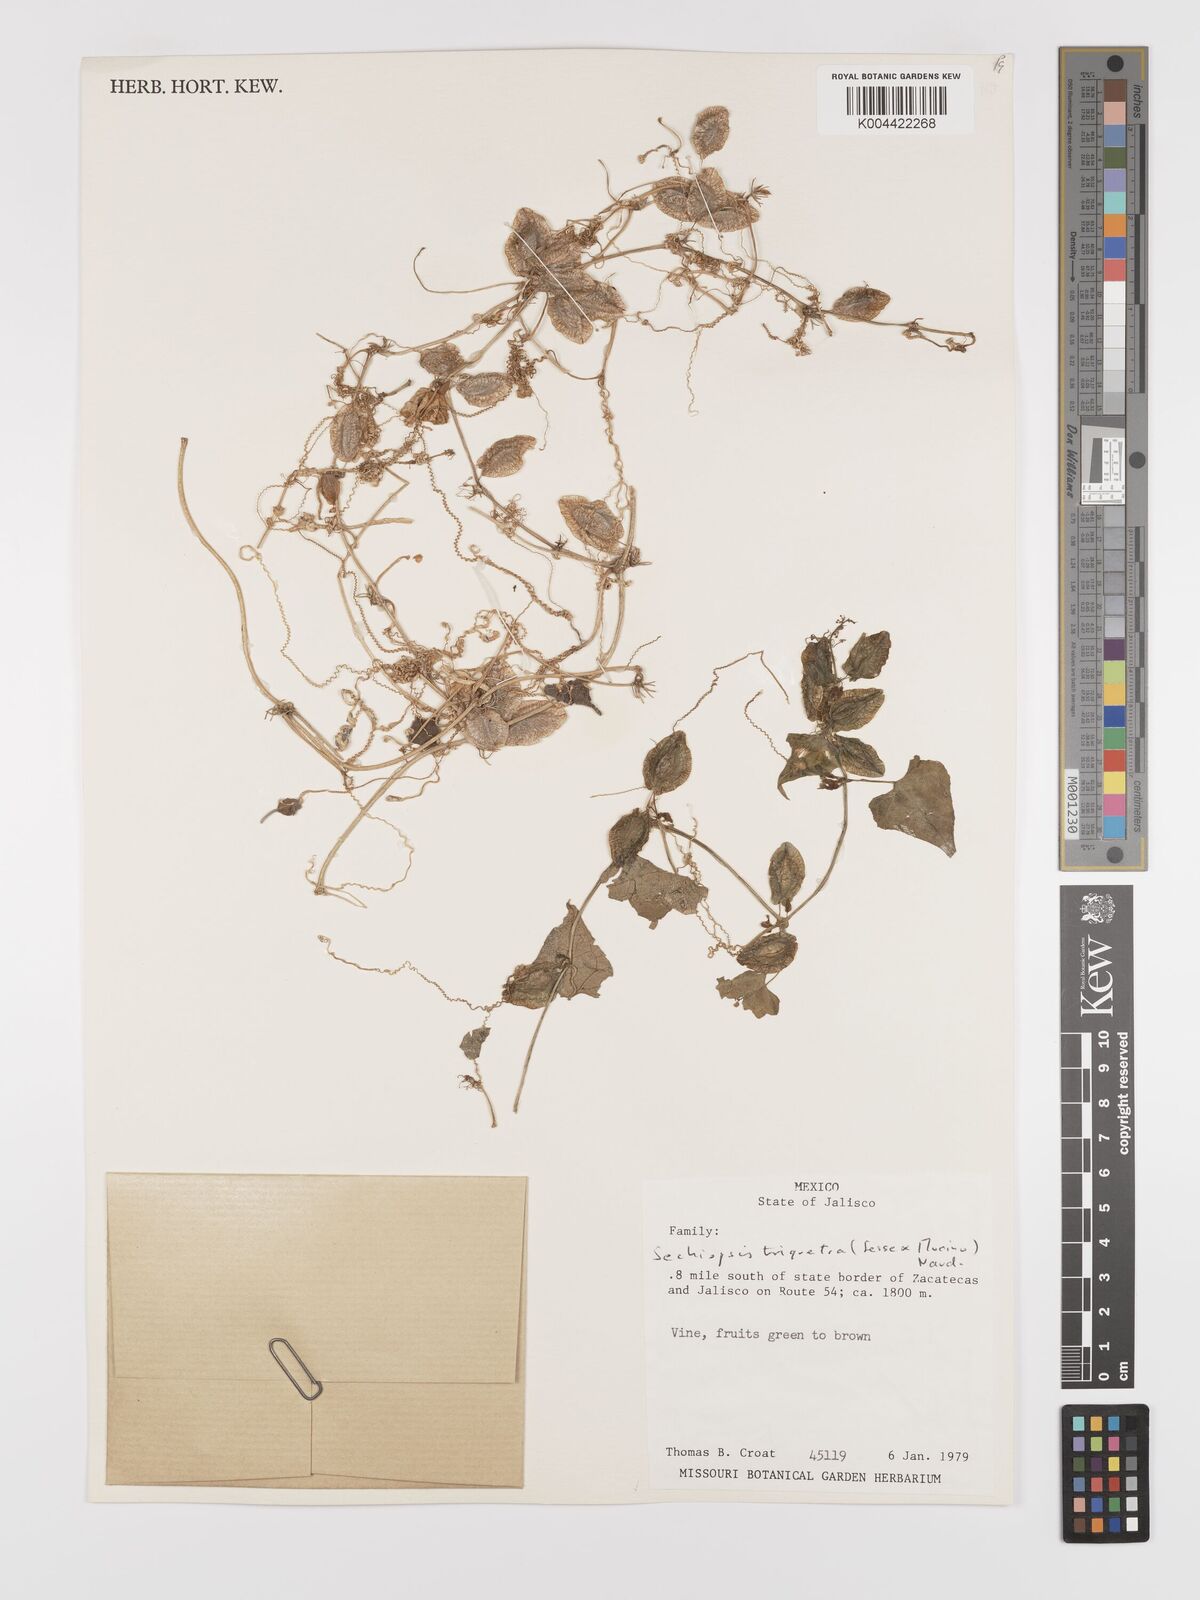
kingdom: Plantae
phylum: Tracheophyta
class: Magnoliopsida
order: Cucurbitales
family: Cucurbitaceae
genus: Sechiopsis
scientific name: Sechiopsis triqueter
